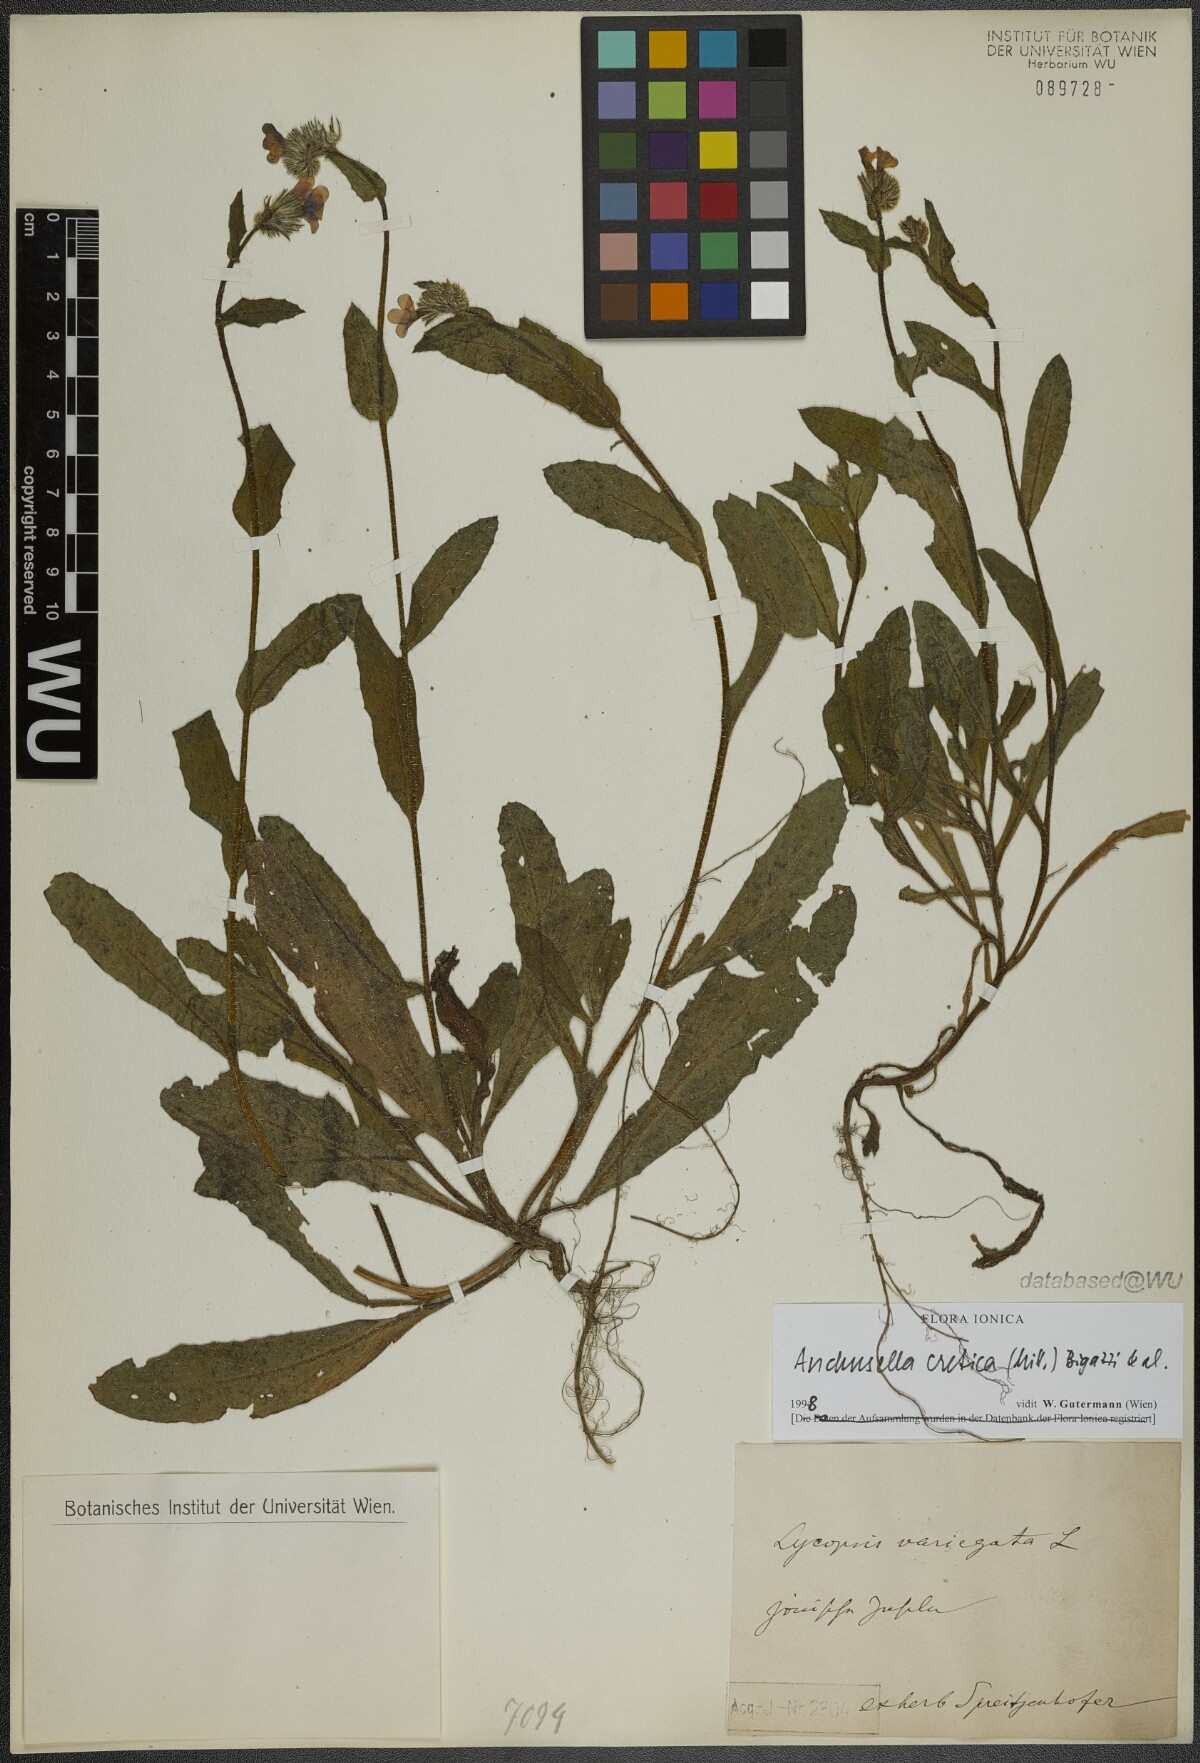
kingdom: Plantae
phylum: Tracheophyta
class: Magnoliopsida
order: Boraginales
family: Boraginaceae
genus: Anchusella
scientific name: Anchusella cretica
